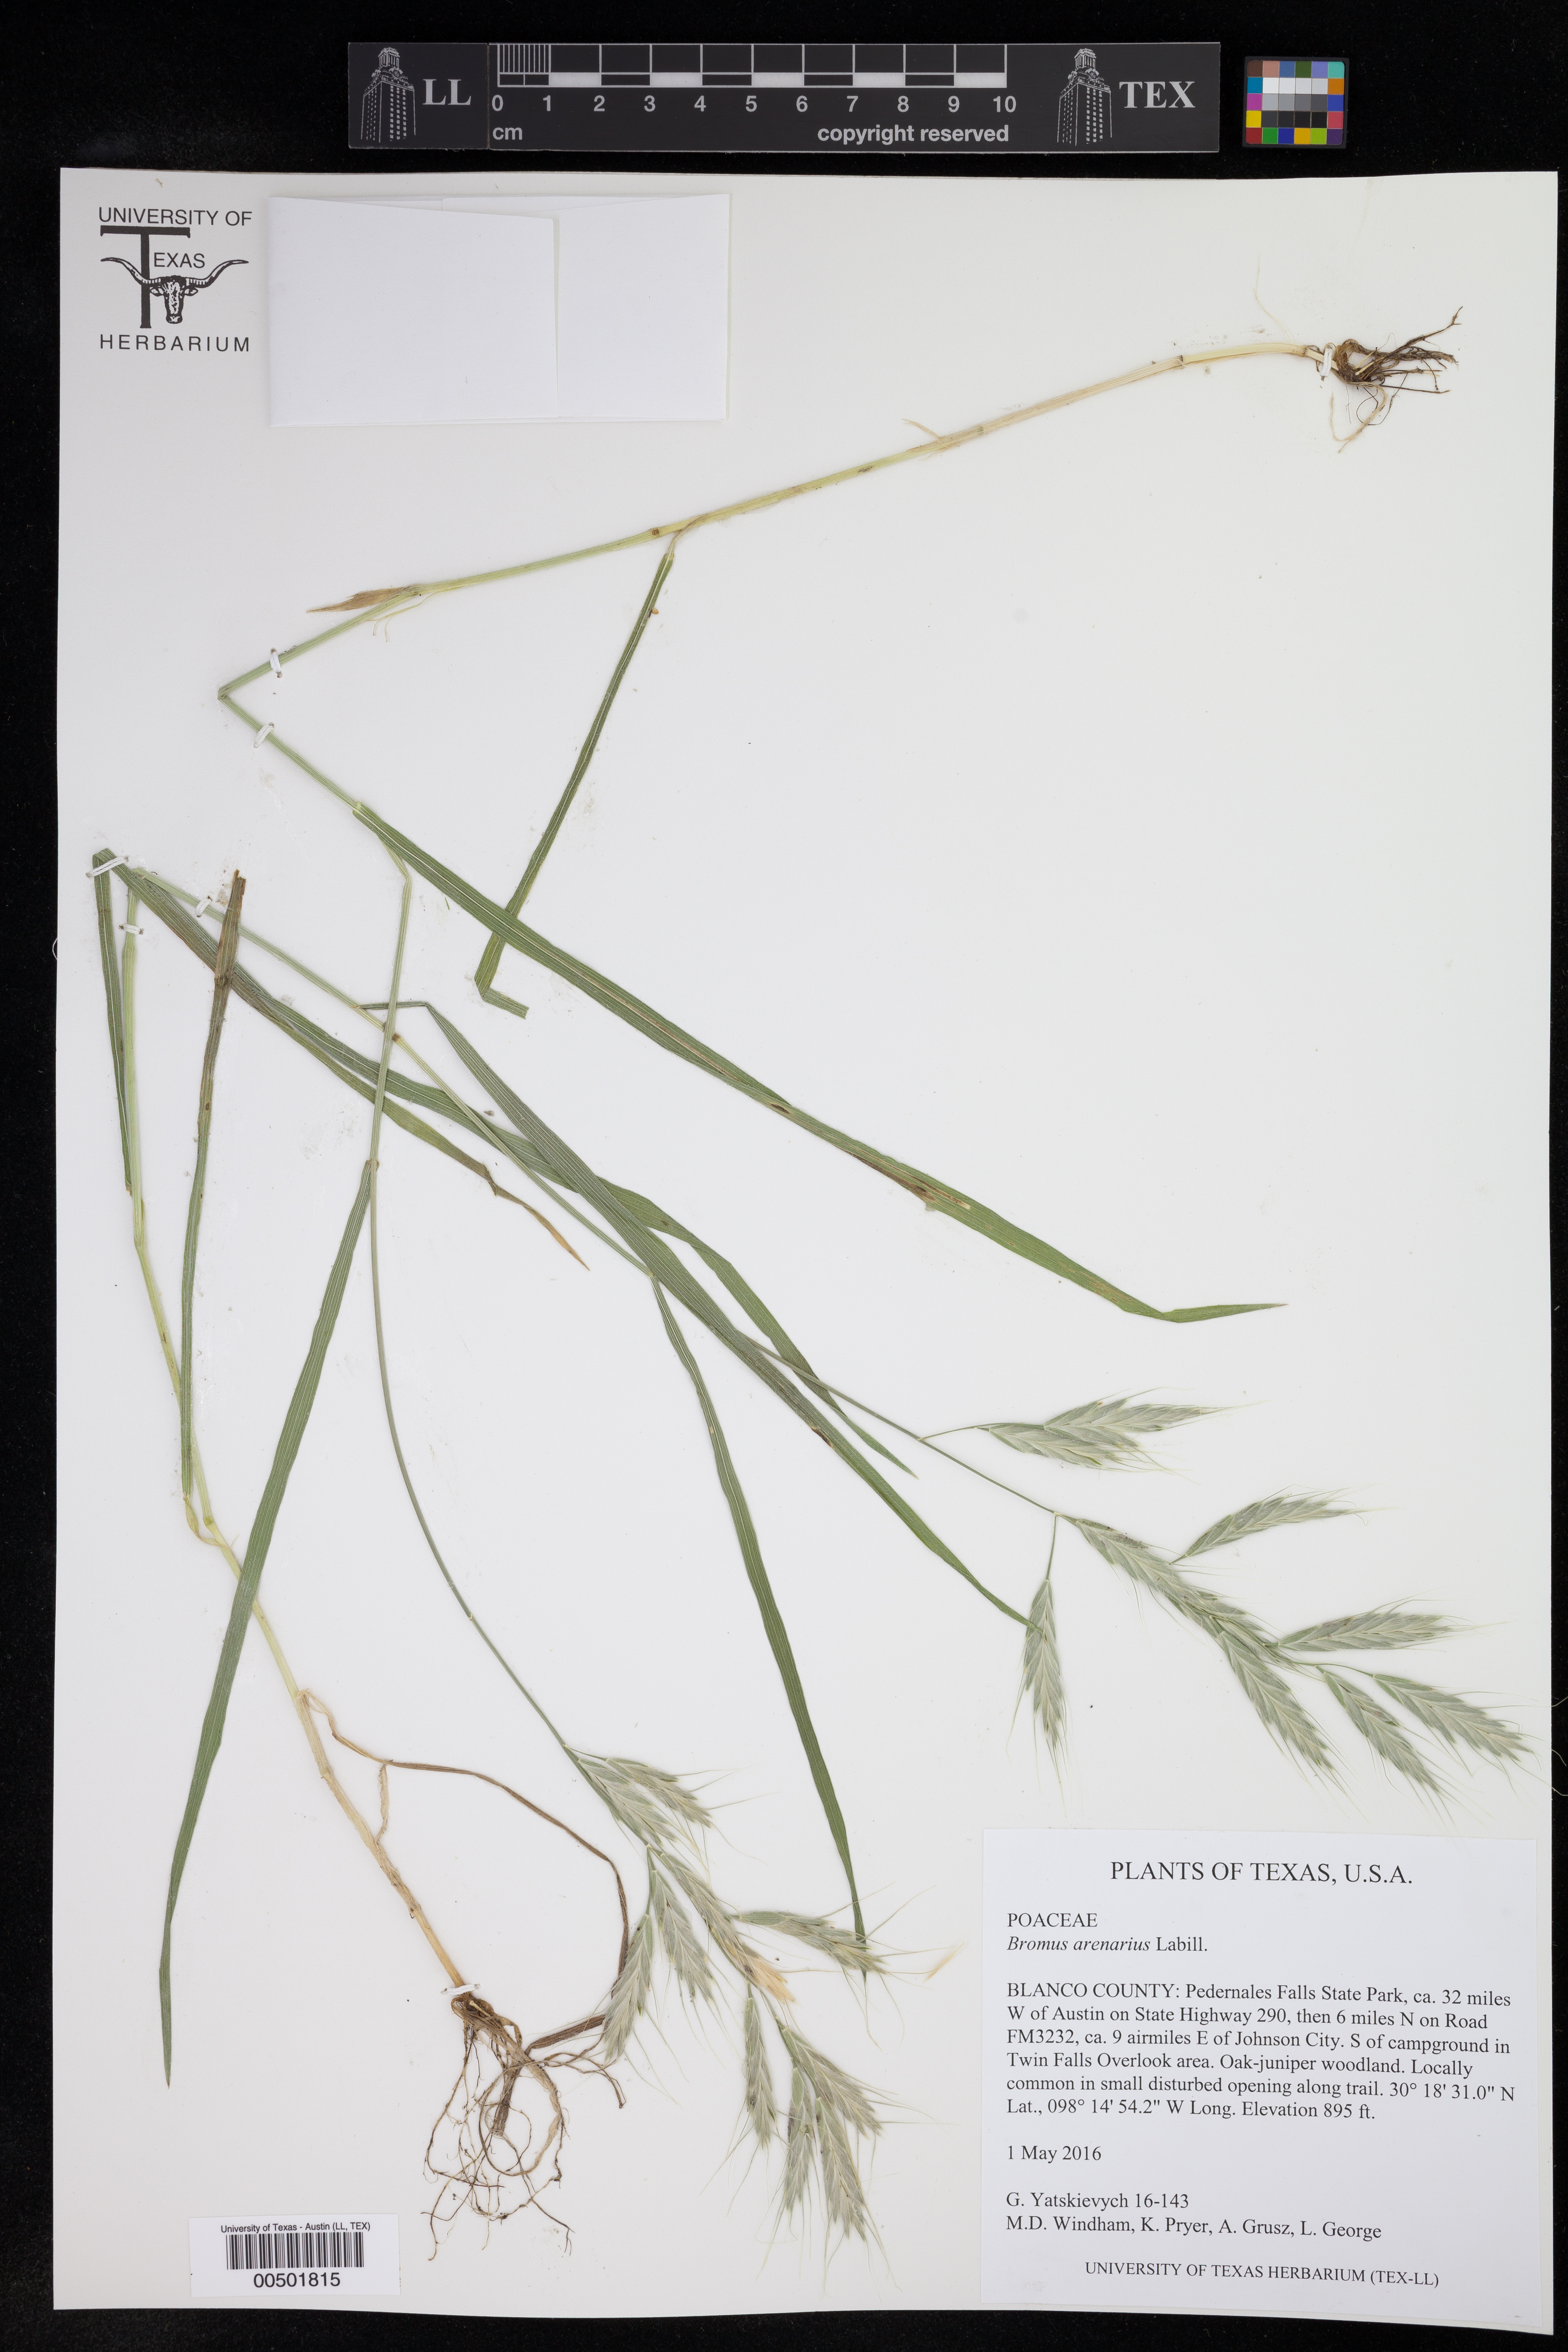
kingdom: Plantae
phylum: Tracheophyta
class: Liliopsida
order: Poales
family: Poaceae
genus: Bromus
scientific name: Bromus arenarius
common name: Australian brome
